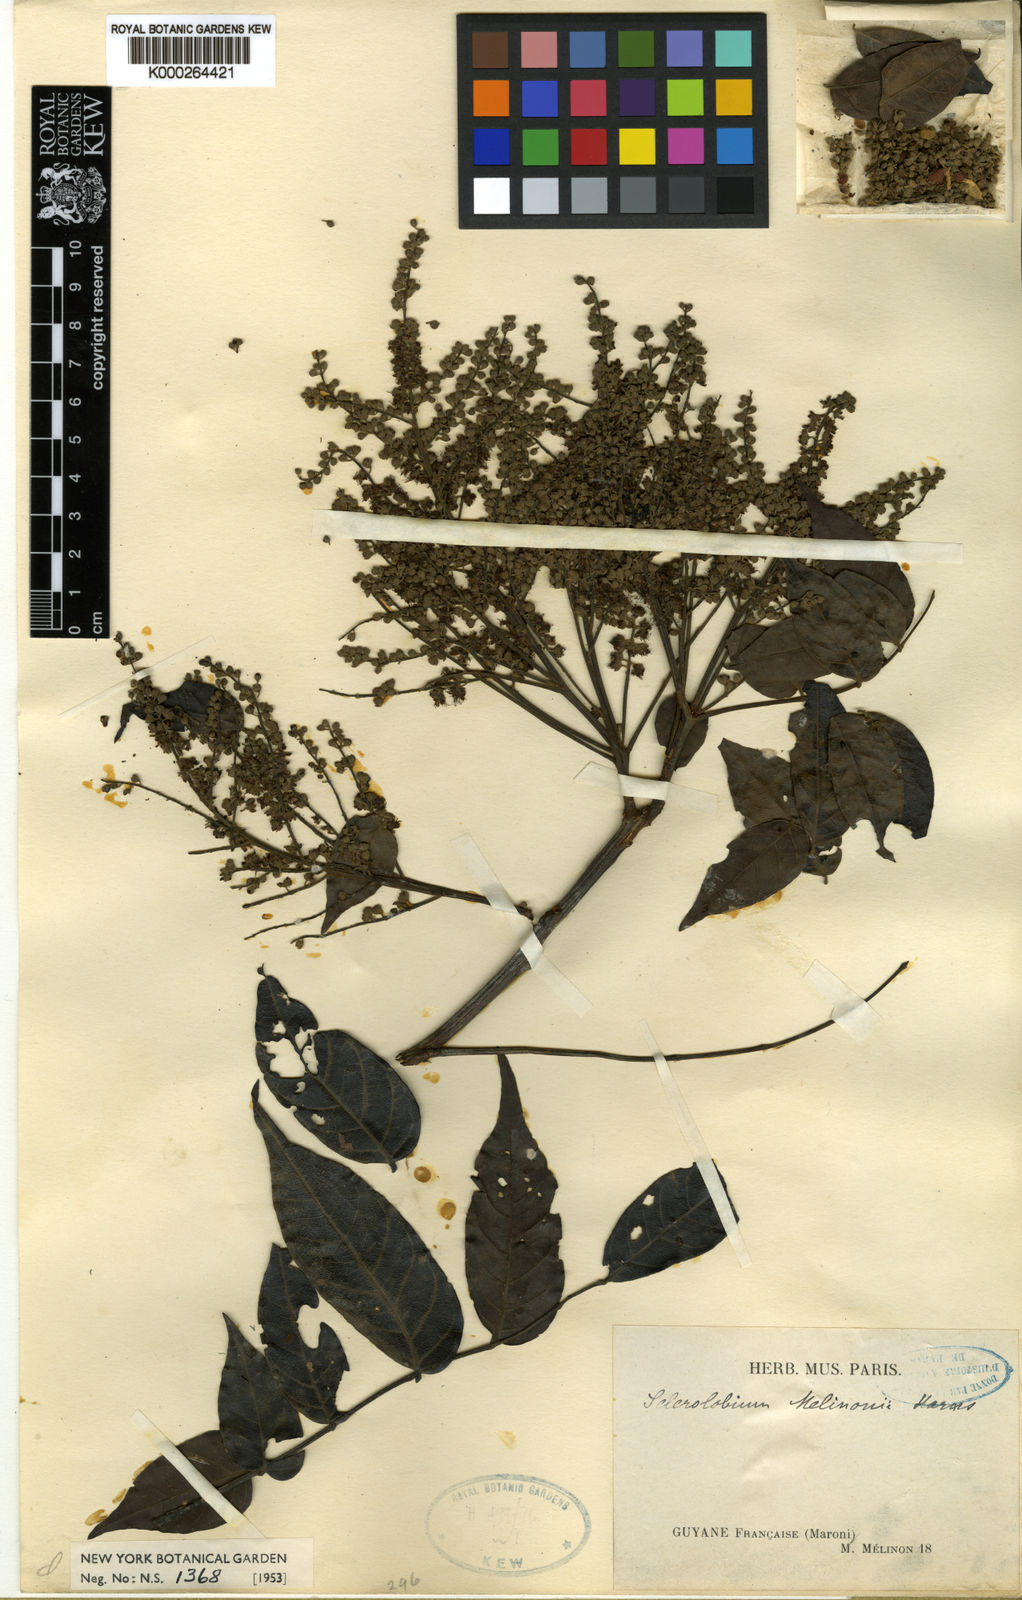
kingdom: Plantae
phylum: Tracheophyta
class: Magnoliopsida
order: Fabales
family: Fabaceae
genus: Tachigali
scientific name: Tachigali melinonii
